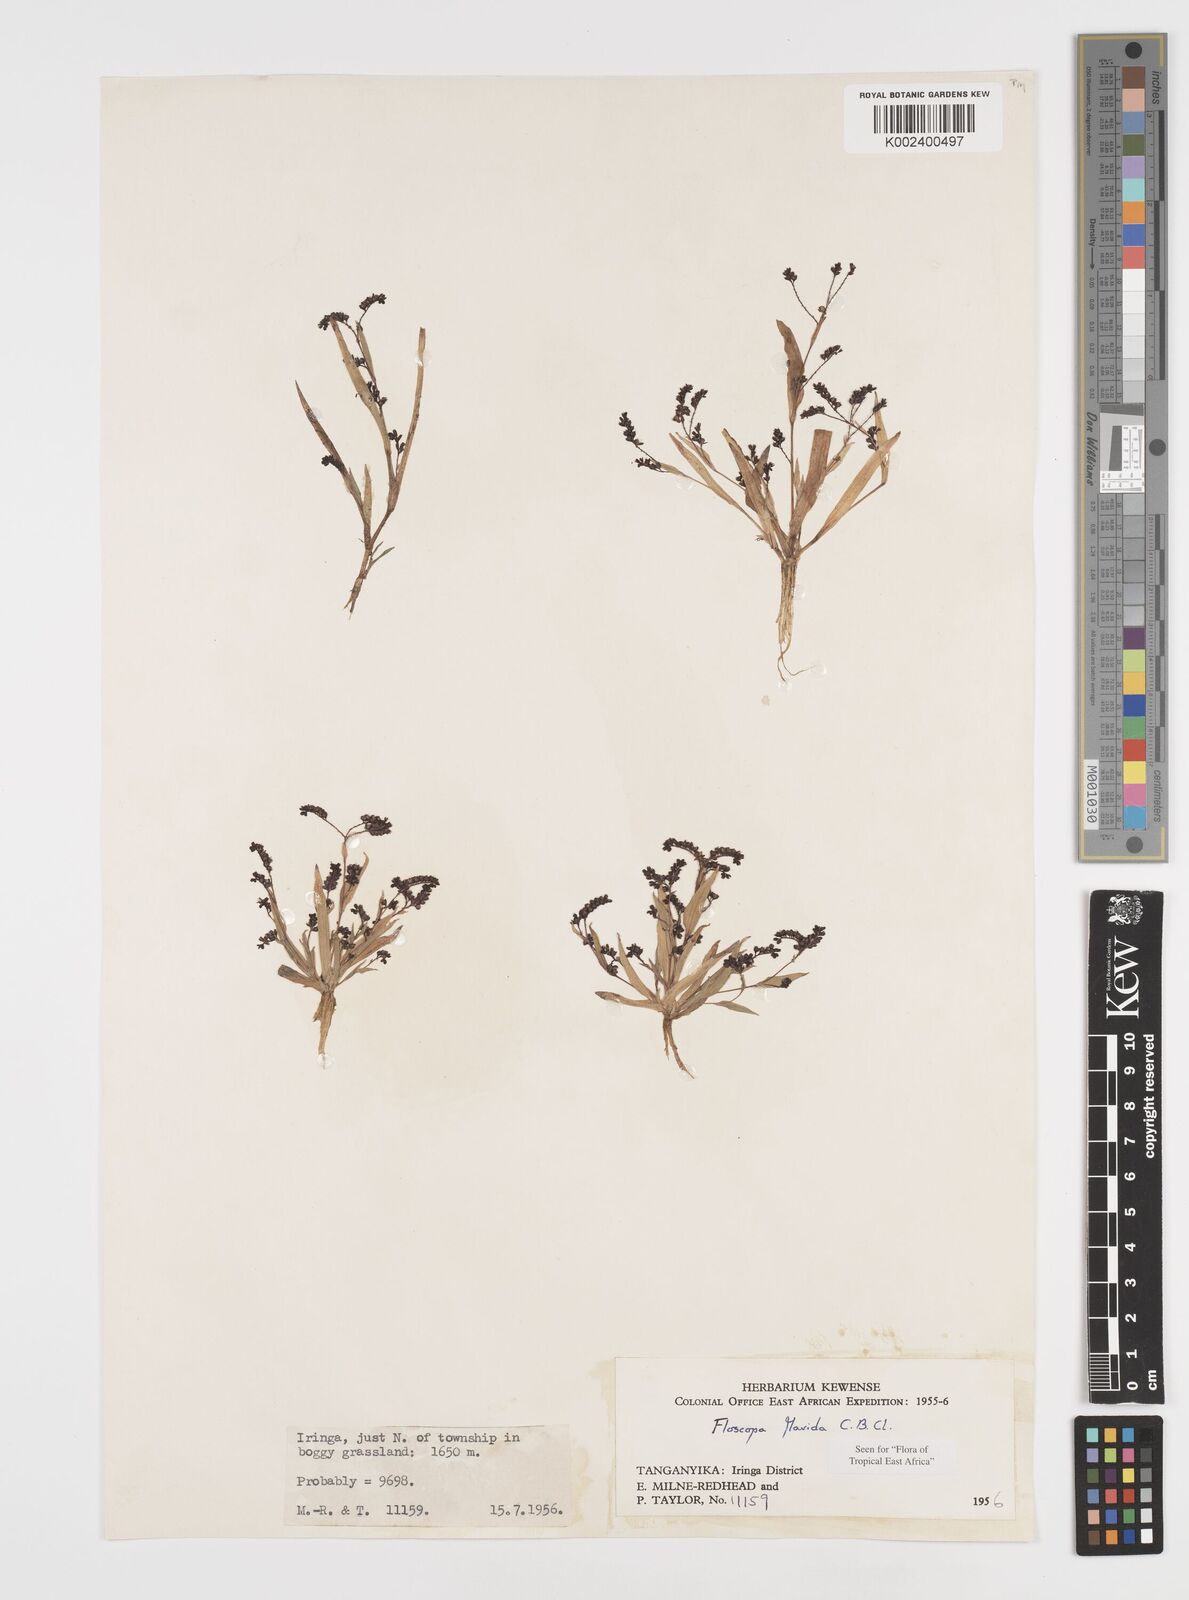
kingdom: Plantae
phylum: Tracheophyta
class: Liliopsida
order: Commelinales
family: Commelinaceae
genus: Floscopa
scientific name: Floscopa flavida
